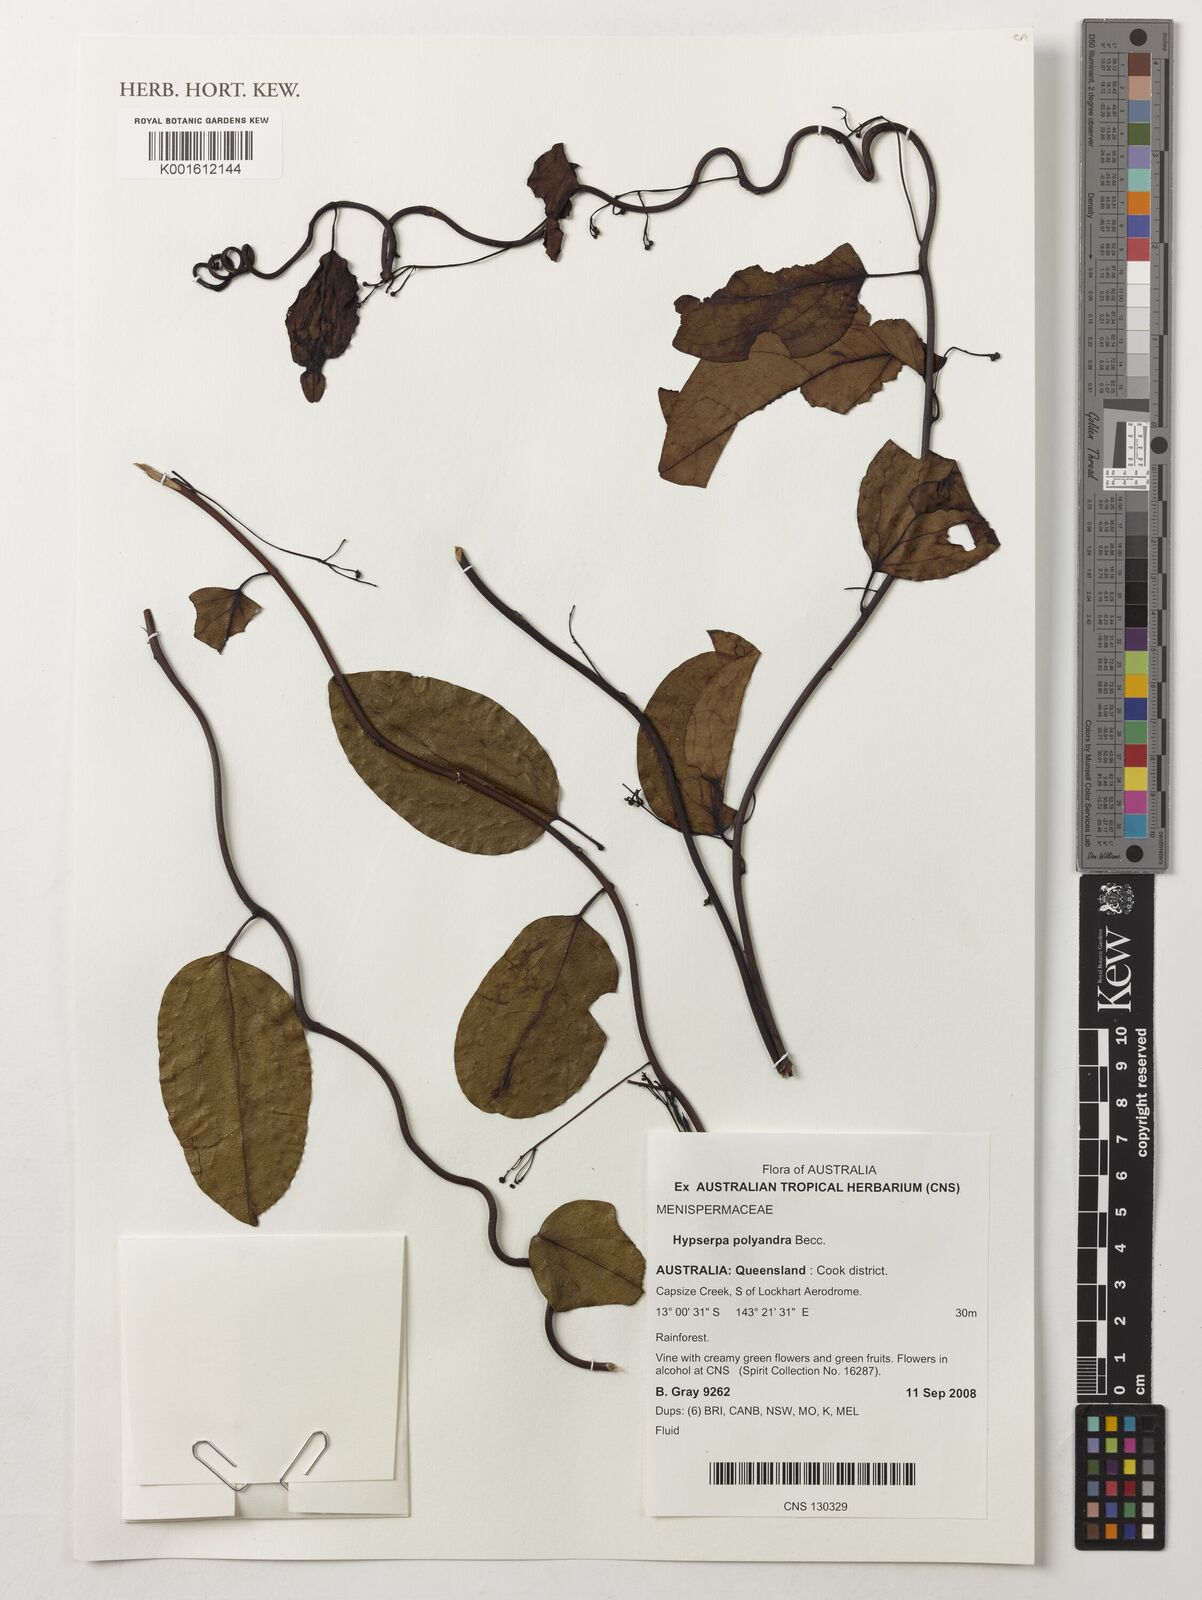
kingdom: Plantae
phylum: Tracheophyta
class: Magnoliopsida
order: Ranunculales
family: Menispermaceae
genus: Hypserpa
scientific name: Hypserpa polyandra
